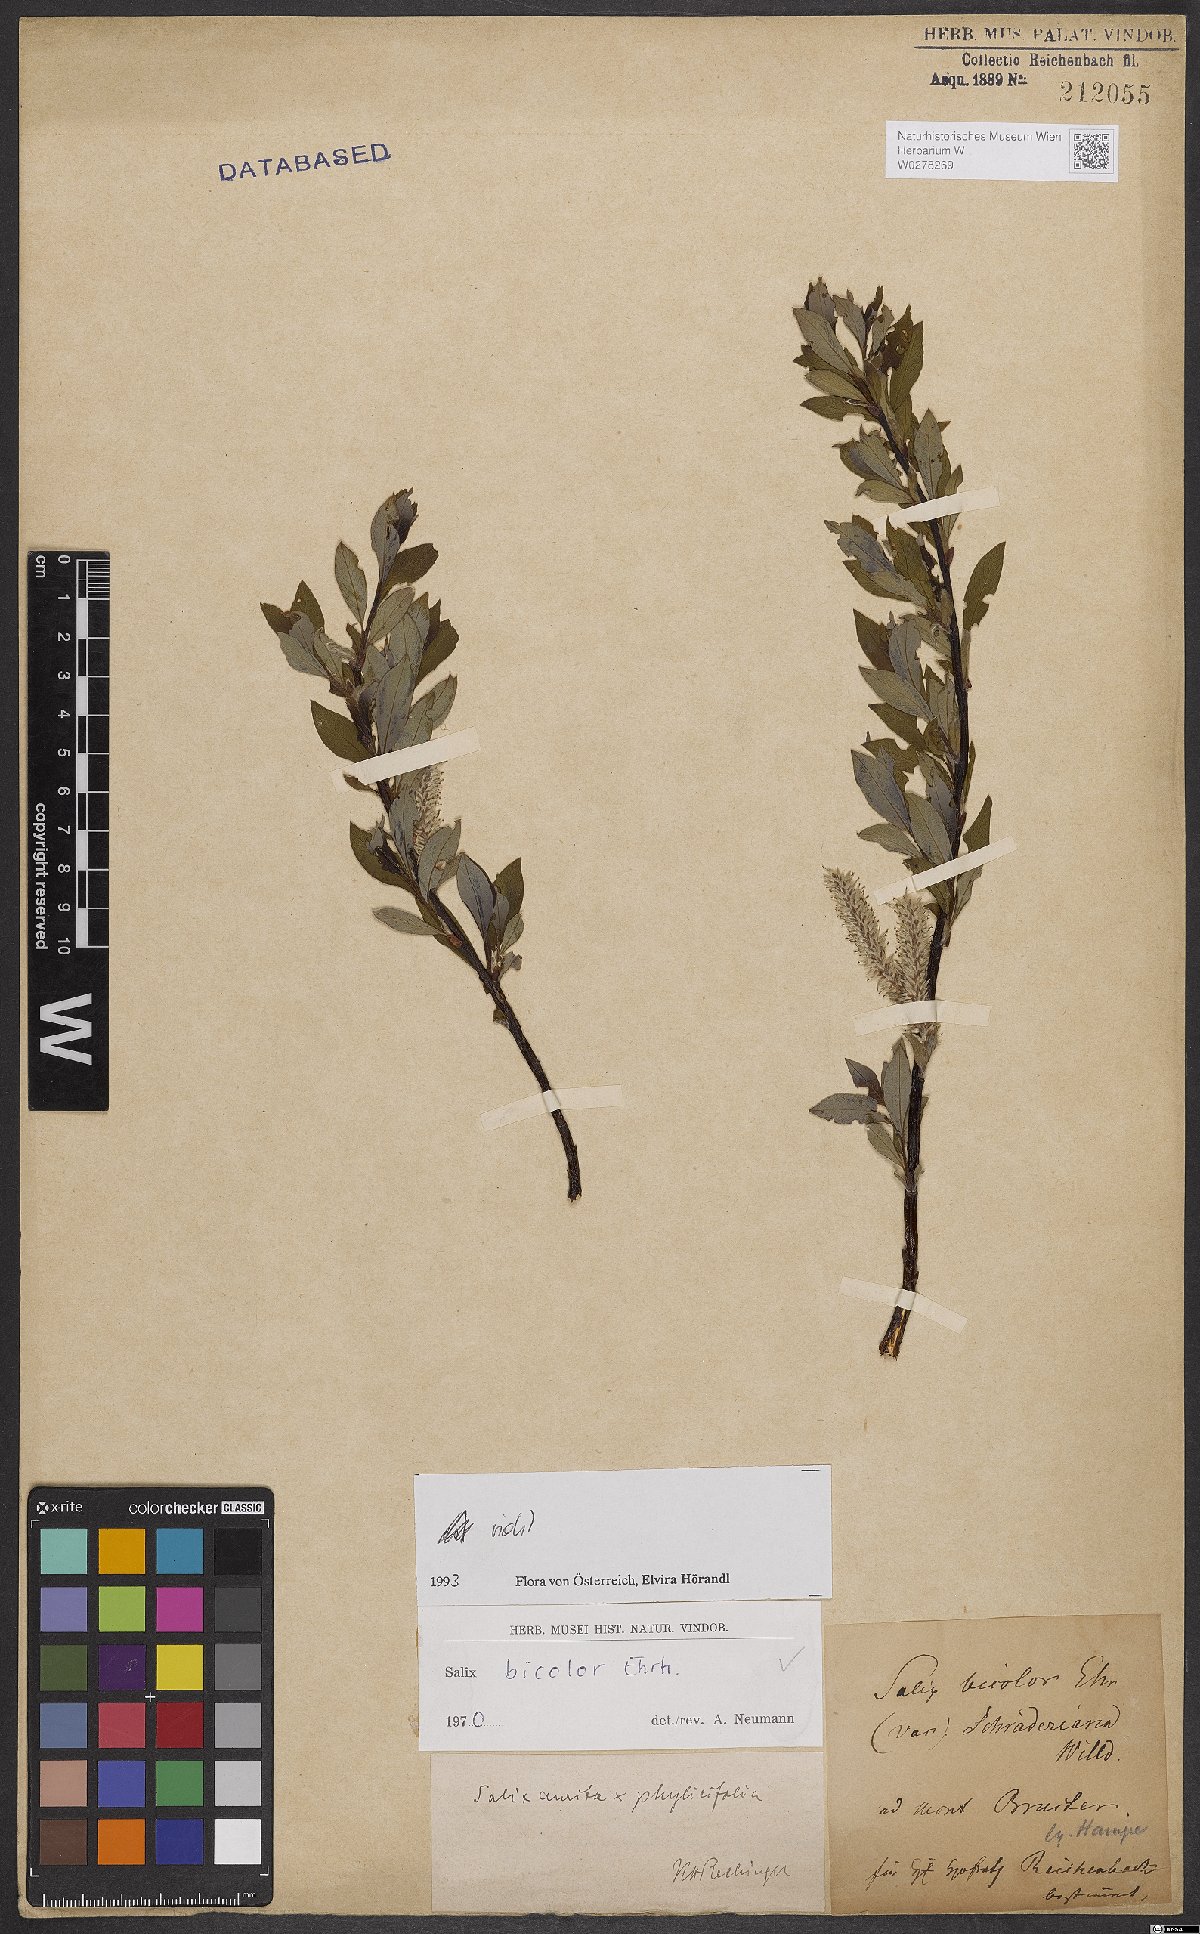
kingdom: Plantae
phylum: Tracheophyta
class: Magnoliopsida
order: Malpighiales
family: Salicaceae
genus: Salix
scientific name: Salix bicolor
